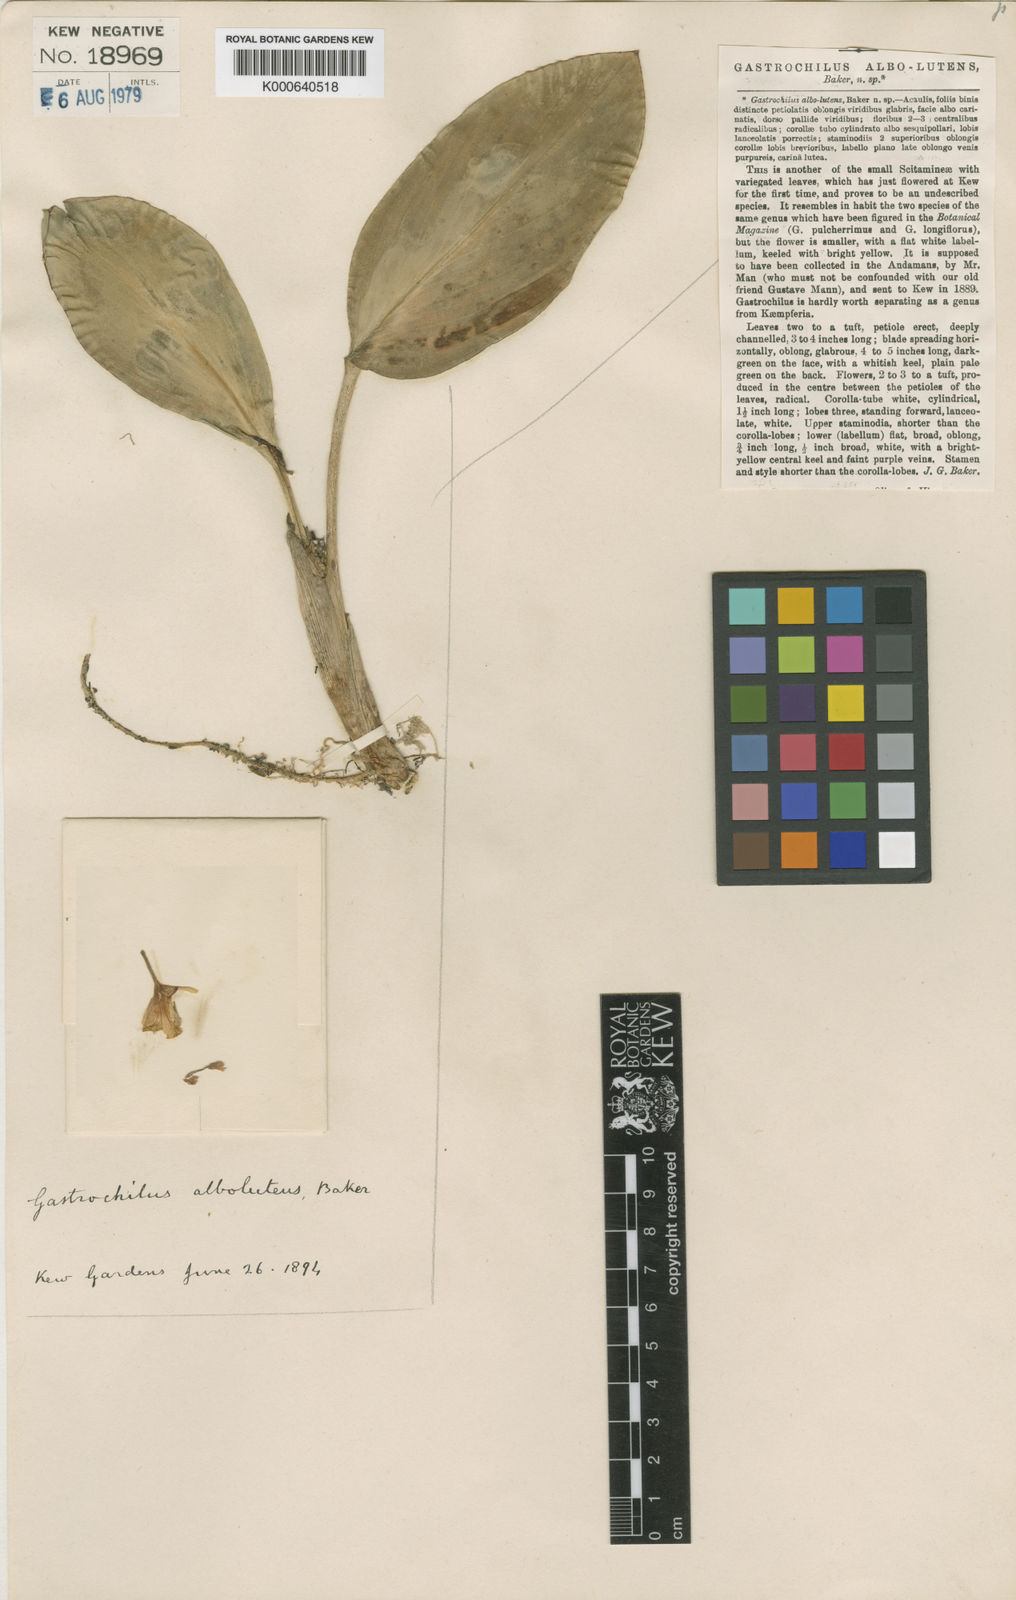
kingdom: Plantae
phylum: Tracheophyta
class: Liliopsida
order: Zingiberales
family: Zingiberaceae
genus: Boesenbergia
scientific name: Boesenbergia albolutea
